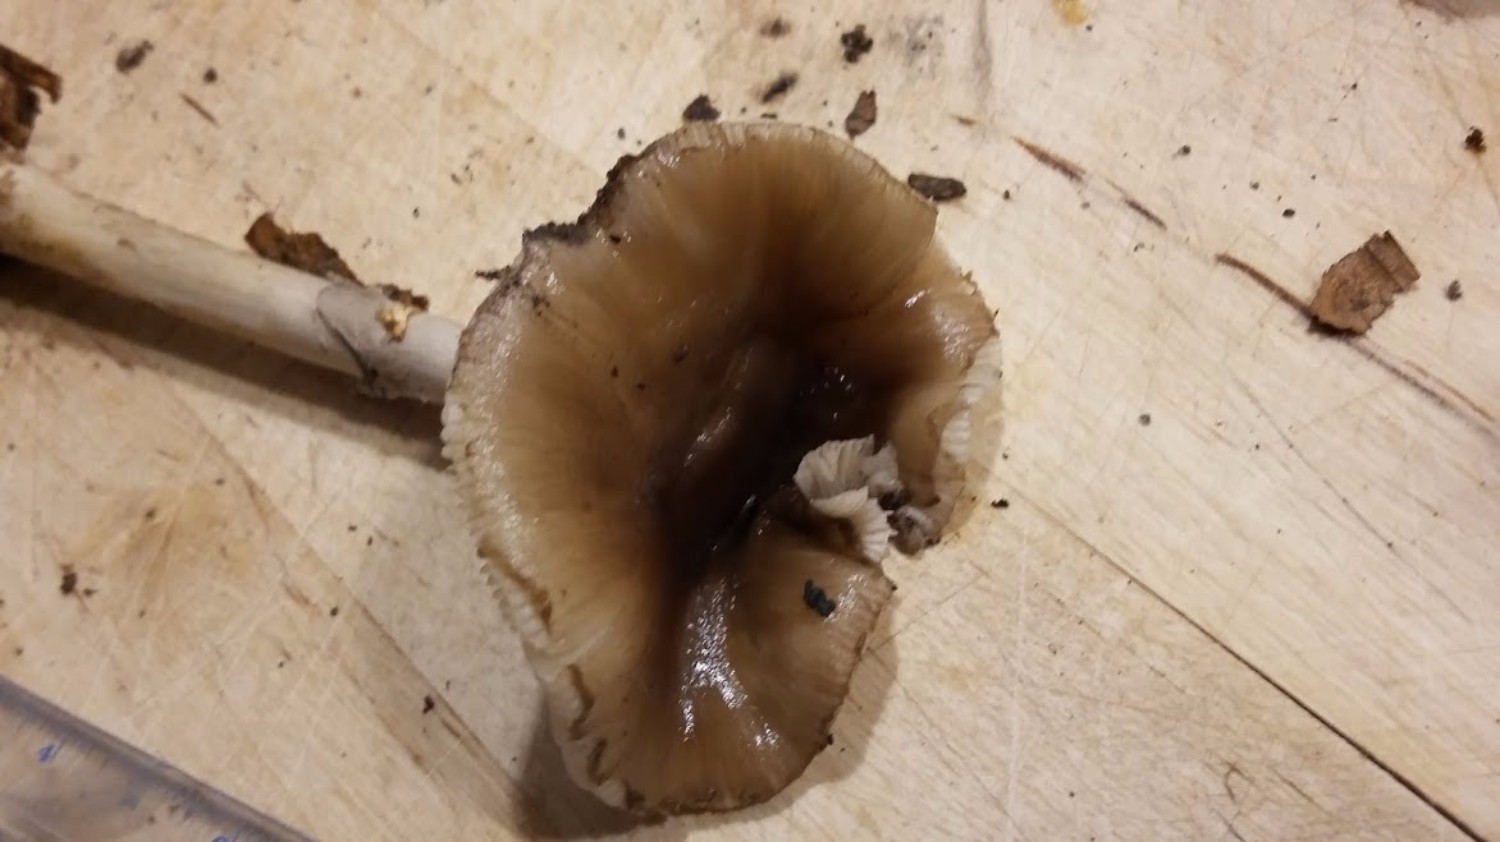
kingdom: Fungi
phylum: Basidiomycota
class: Agaricomycetes
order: Agaricales
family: Amanitaceae
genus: Amanita
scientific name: Amanita porphyria
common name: porfyr-fluesvamp
